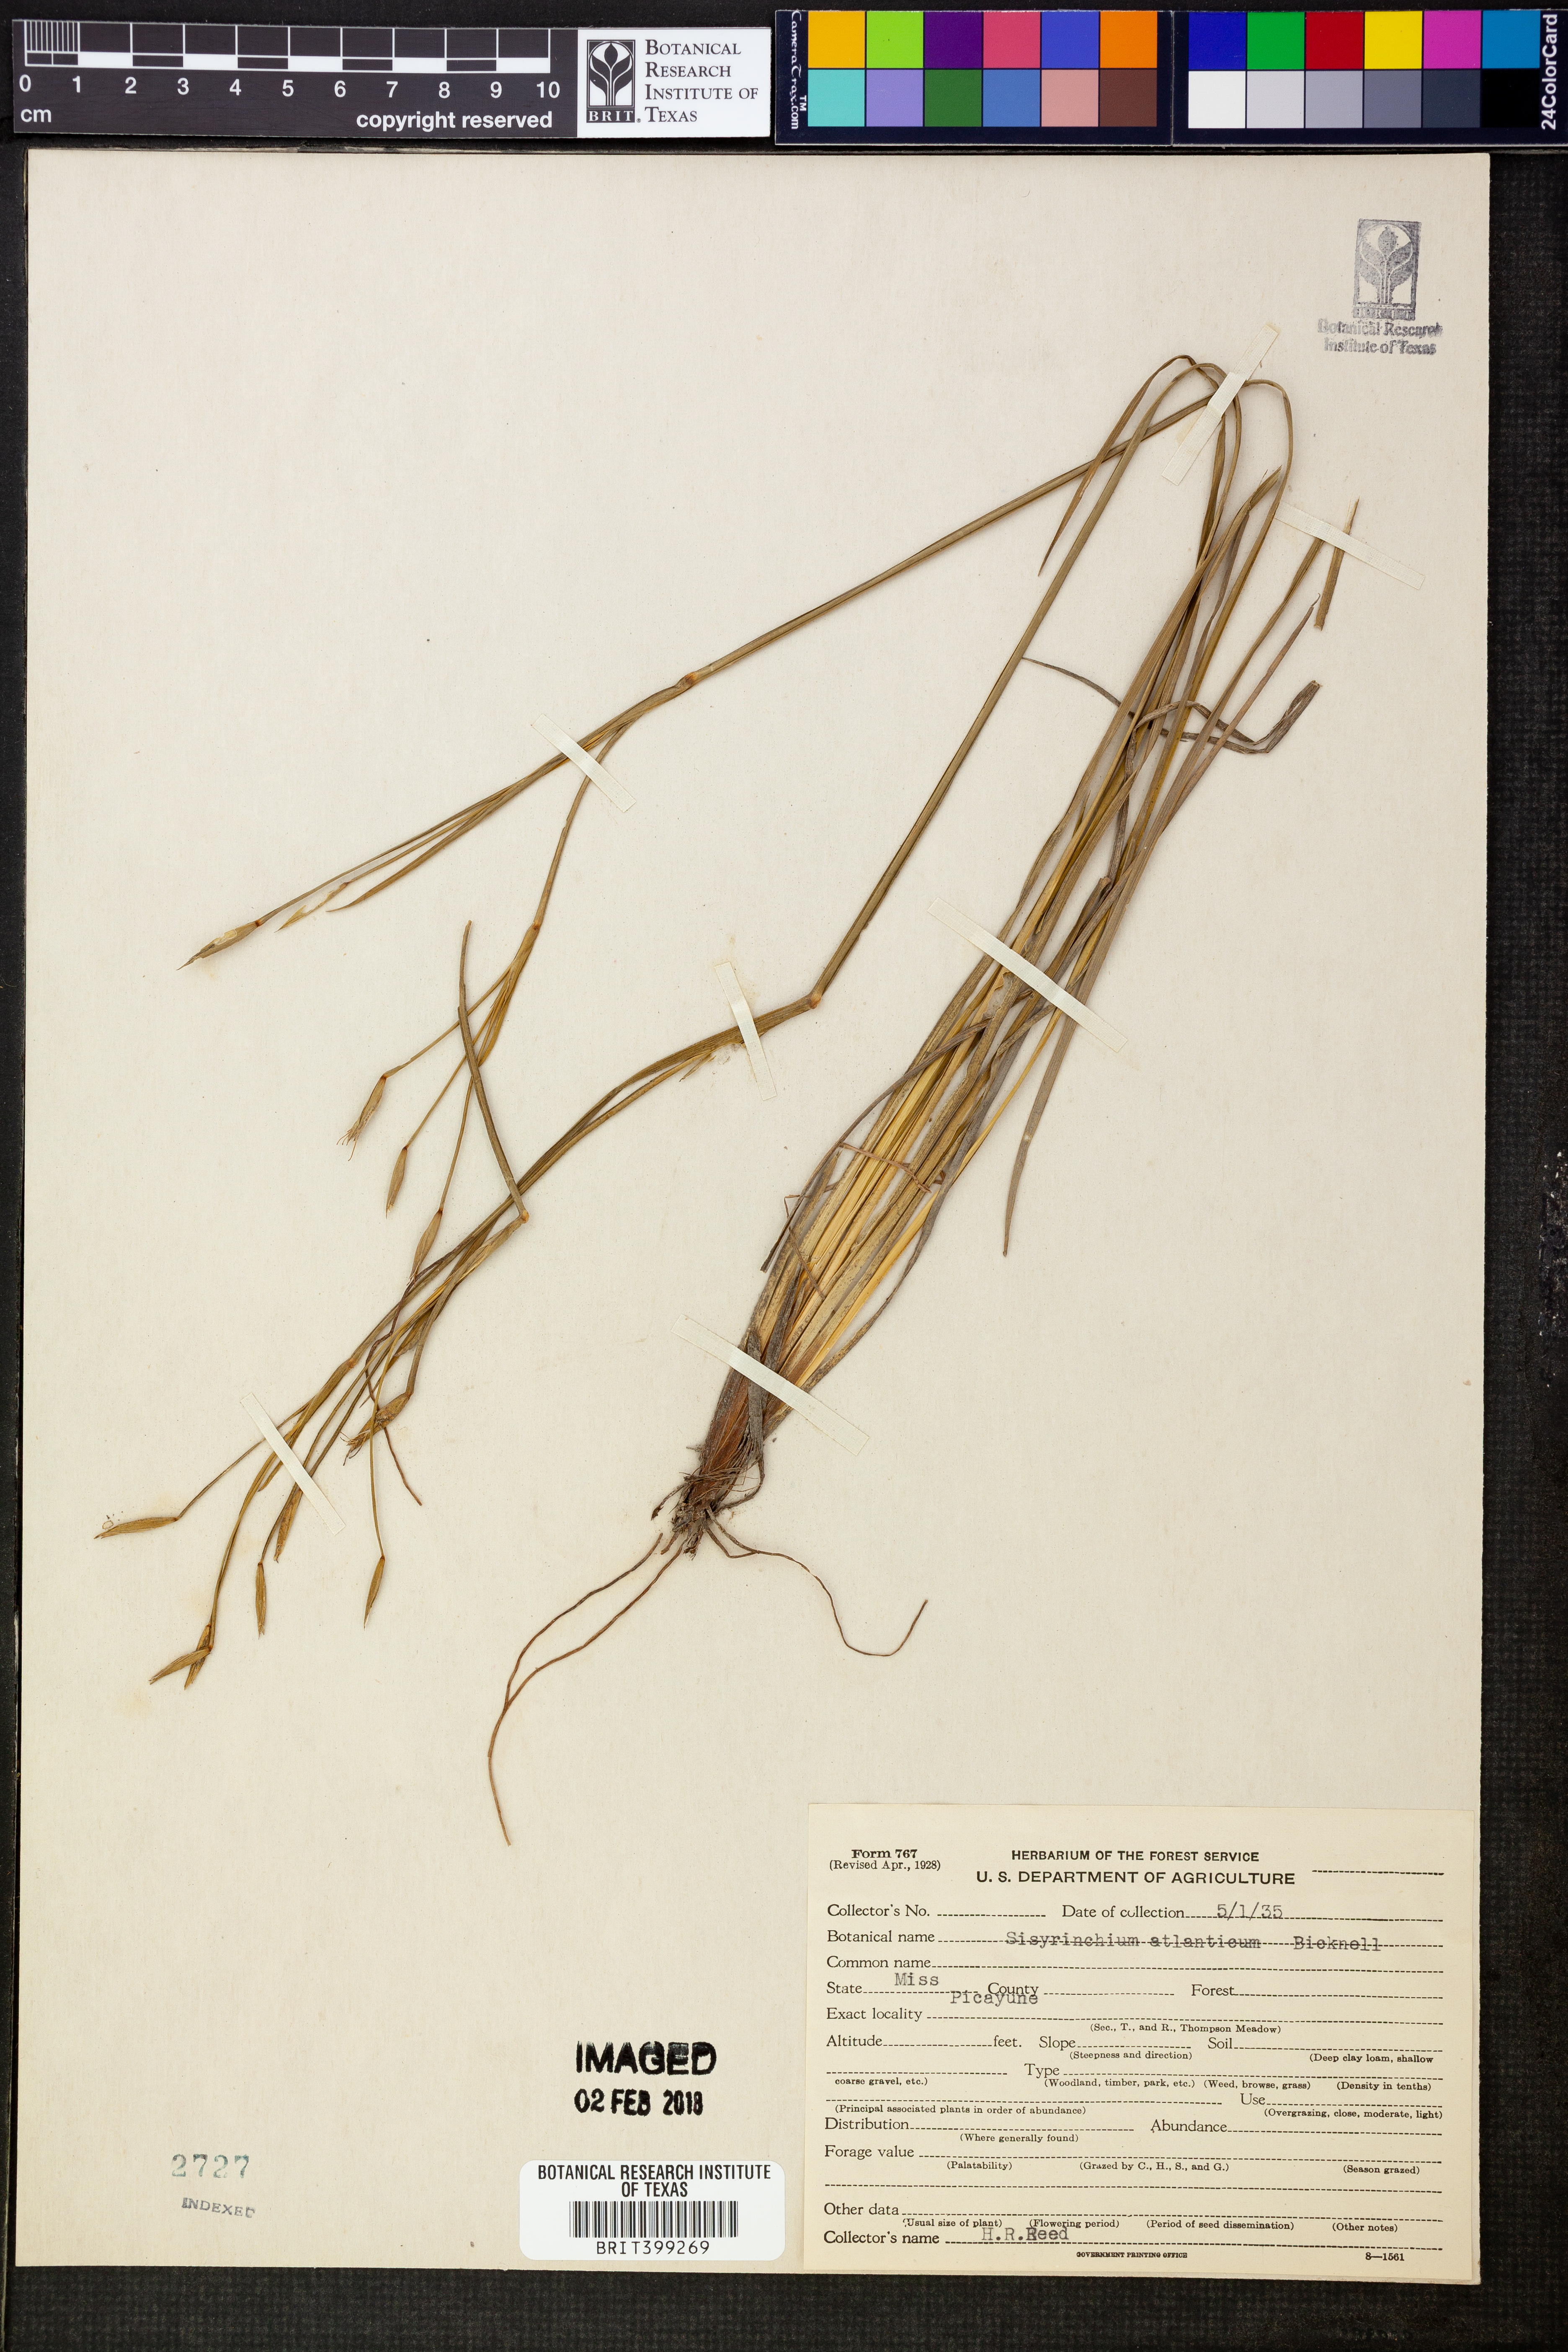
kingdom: Plantae
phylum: Tracheophyta
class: Liliopsida
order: Asparagales
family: Iridaceae
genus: Sisyrinchium
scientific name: Sisyrinchium atlanticum
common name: Eastern blue-eyed-grass
